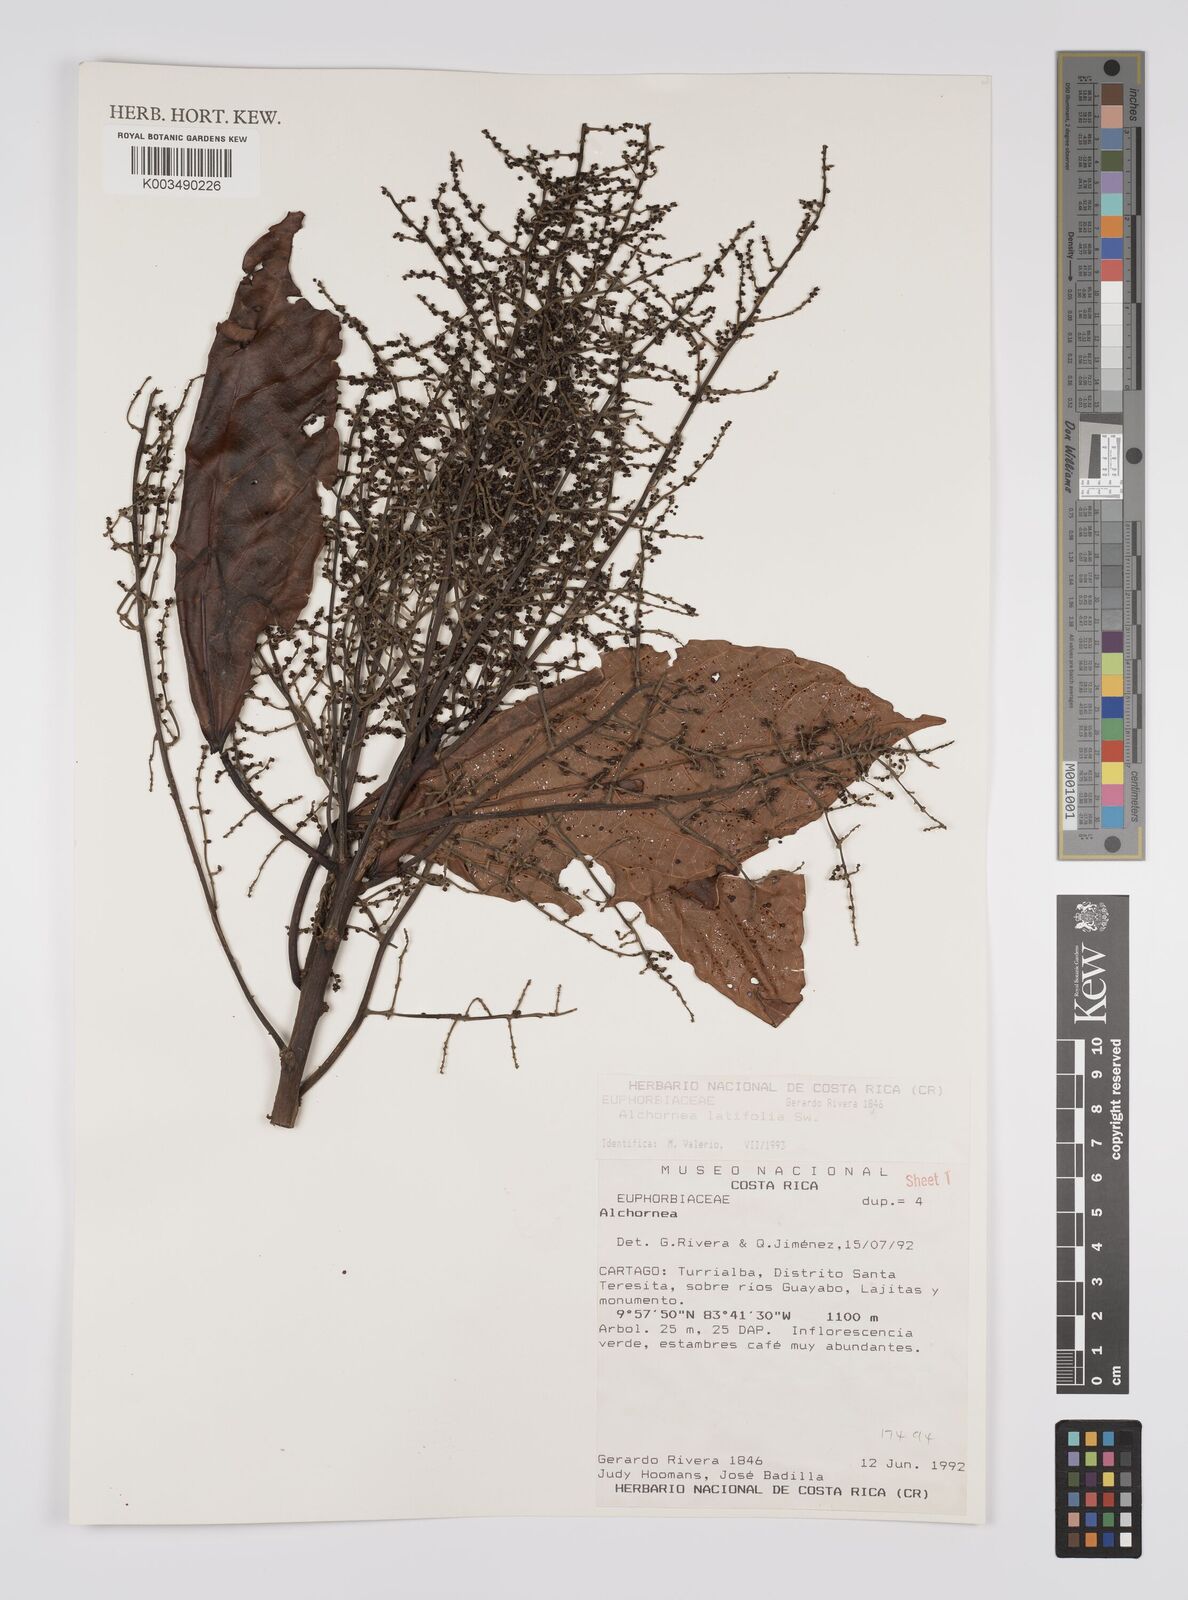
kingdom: Plantae
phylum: Tracheophyta
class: Magnoliopsida
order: Malpighiales
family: Euphorbiaceae
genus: Alchornea
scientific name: Alchornea latifolia
